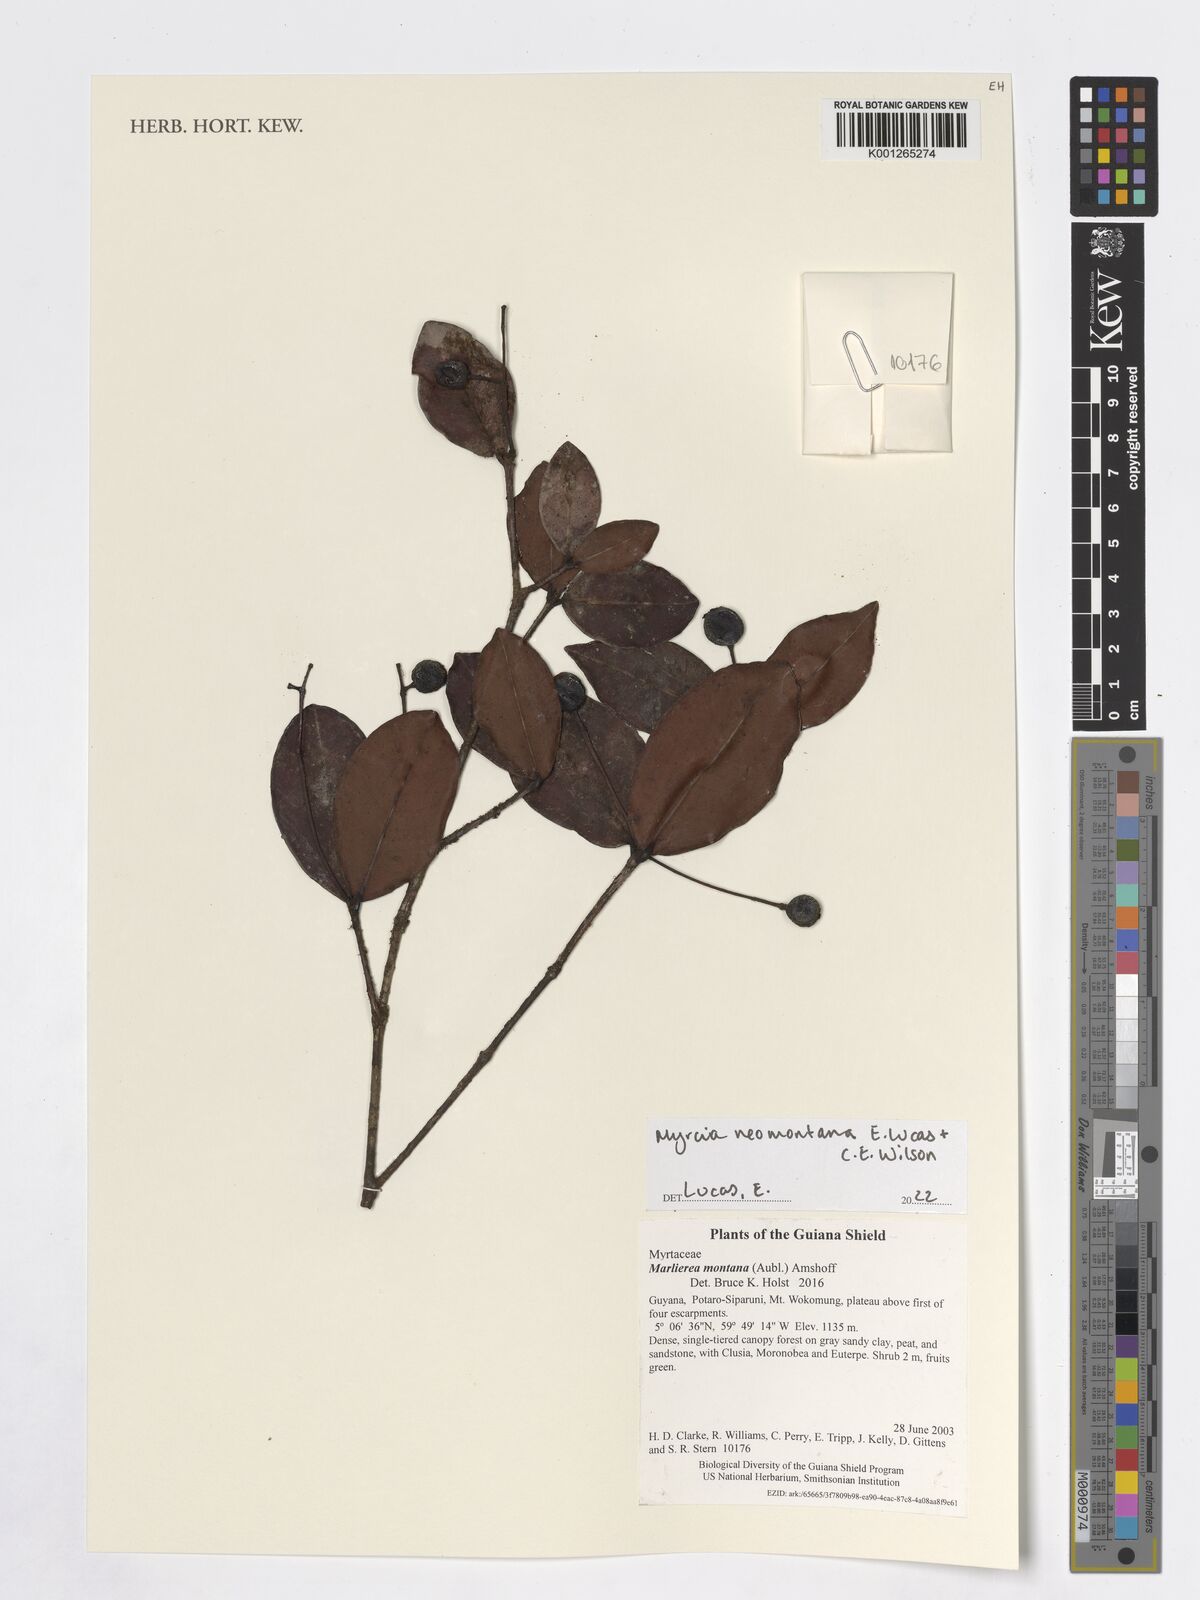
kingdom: Plantae
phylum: Tracheophyta
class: Magnoliopsida
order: Myrtales
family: Myrtaceae
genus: Myrcia
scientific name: Myrcia neomontana
